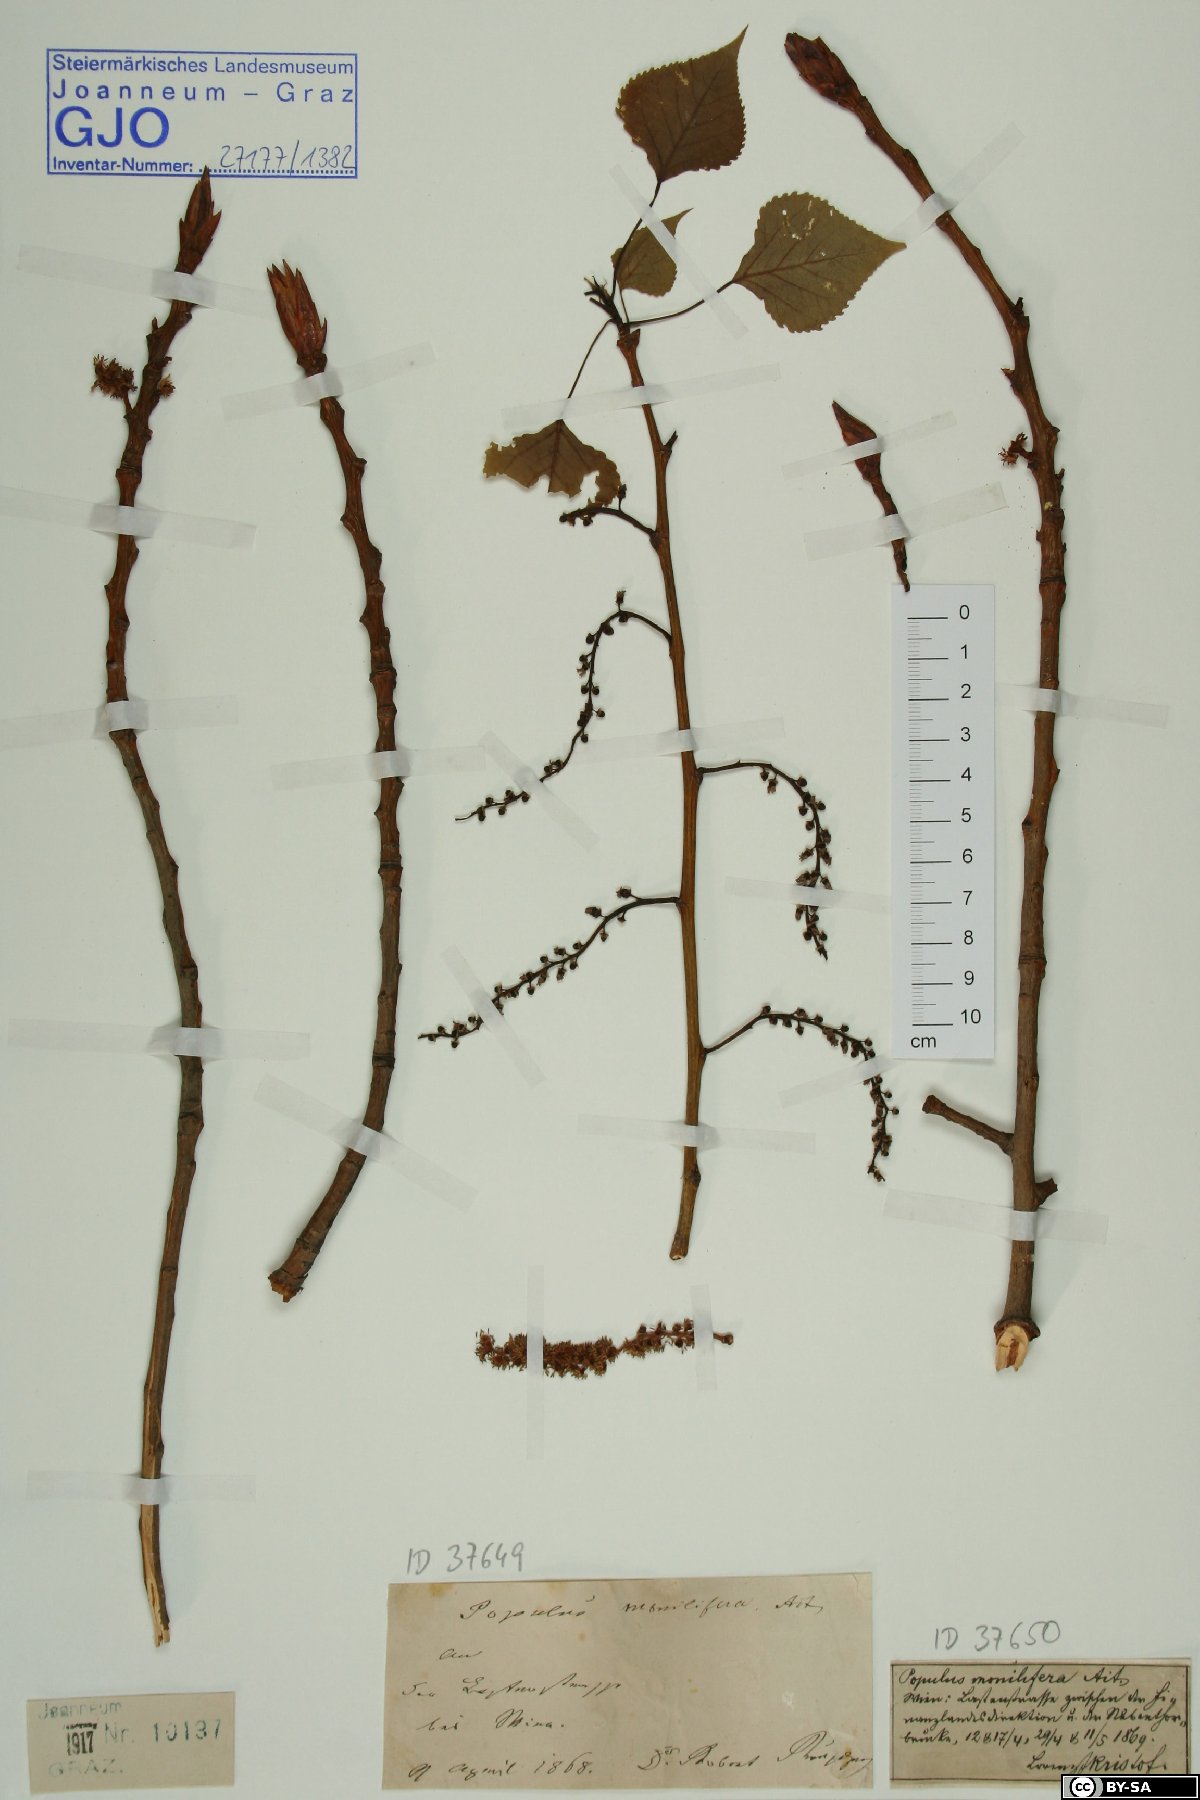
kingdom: Plantae
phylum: Tracheophyta
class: Magnoliopsida
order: Malpighiales
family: Salicaceae
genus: Populus
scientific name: Populus deltoides
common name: Eastern cottonwood
